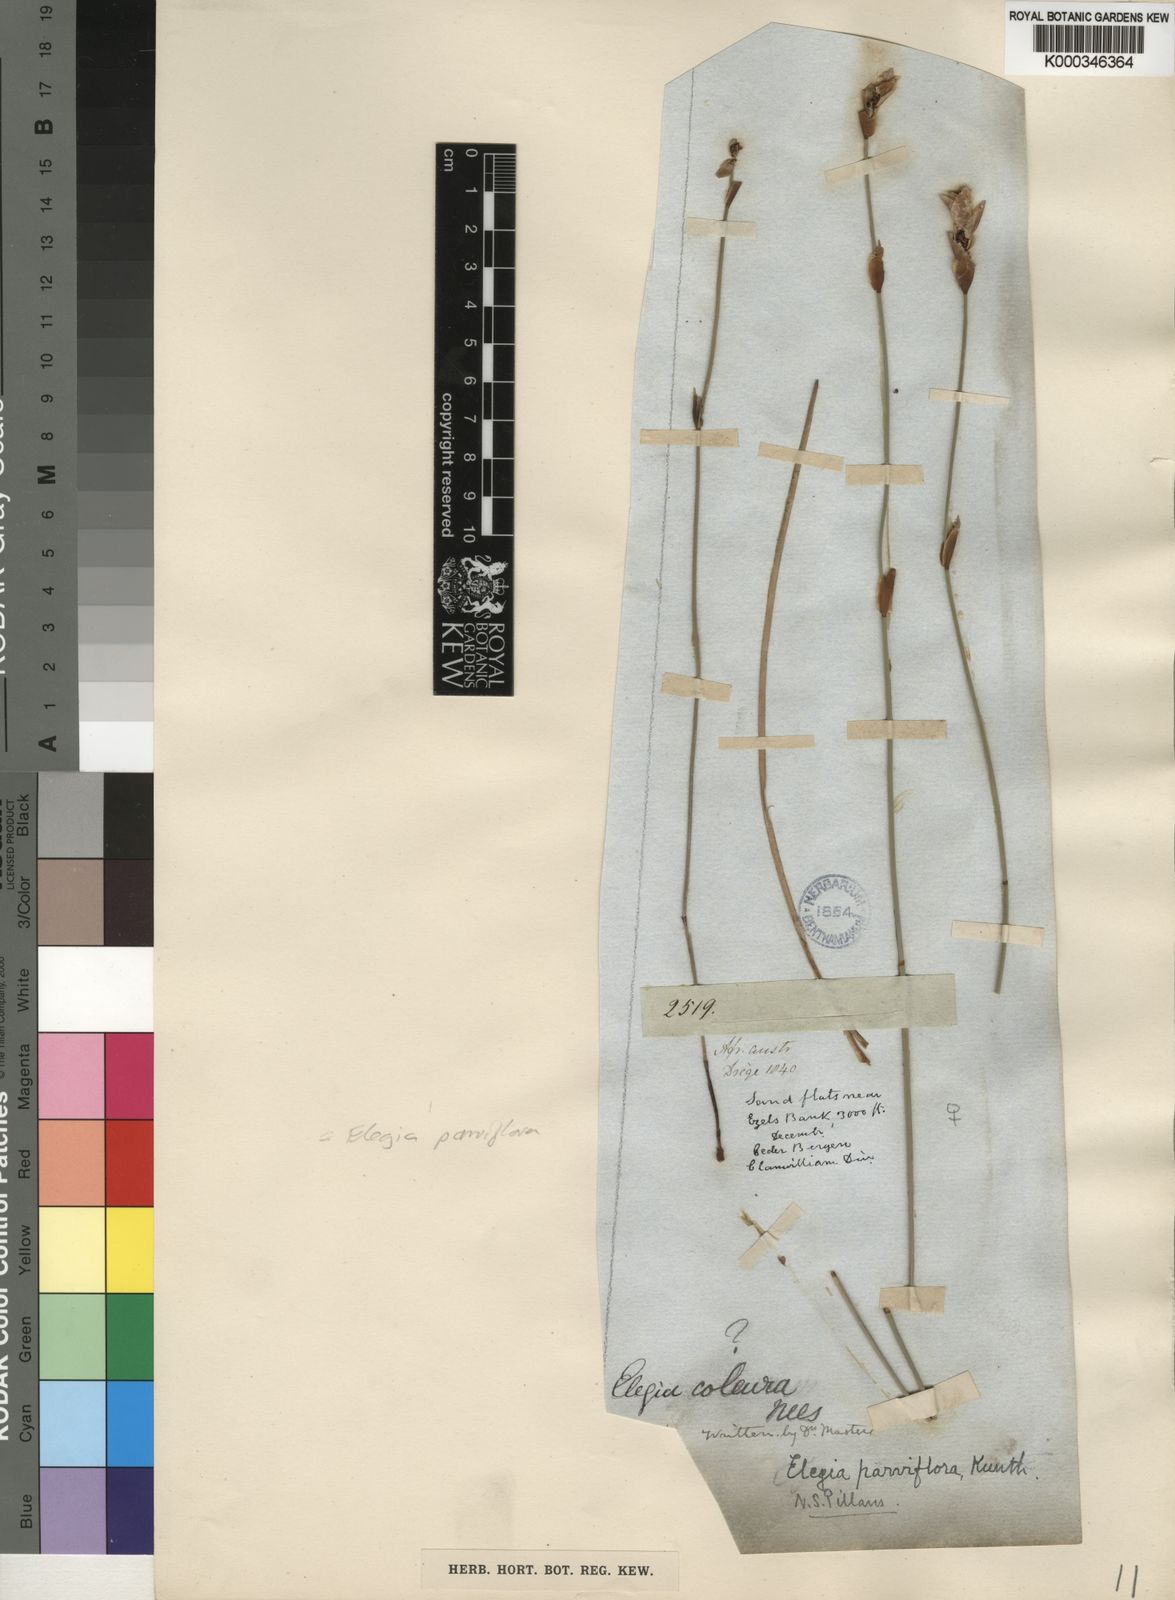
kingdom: Plantae
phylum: Tracheophyta
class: Liliopsida
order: Poales
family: Restionaceae
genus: Elegia
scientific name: Elegia squamosa
